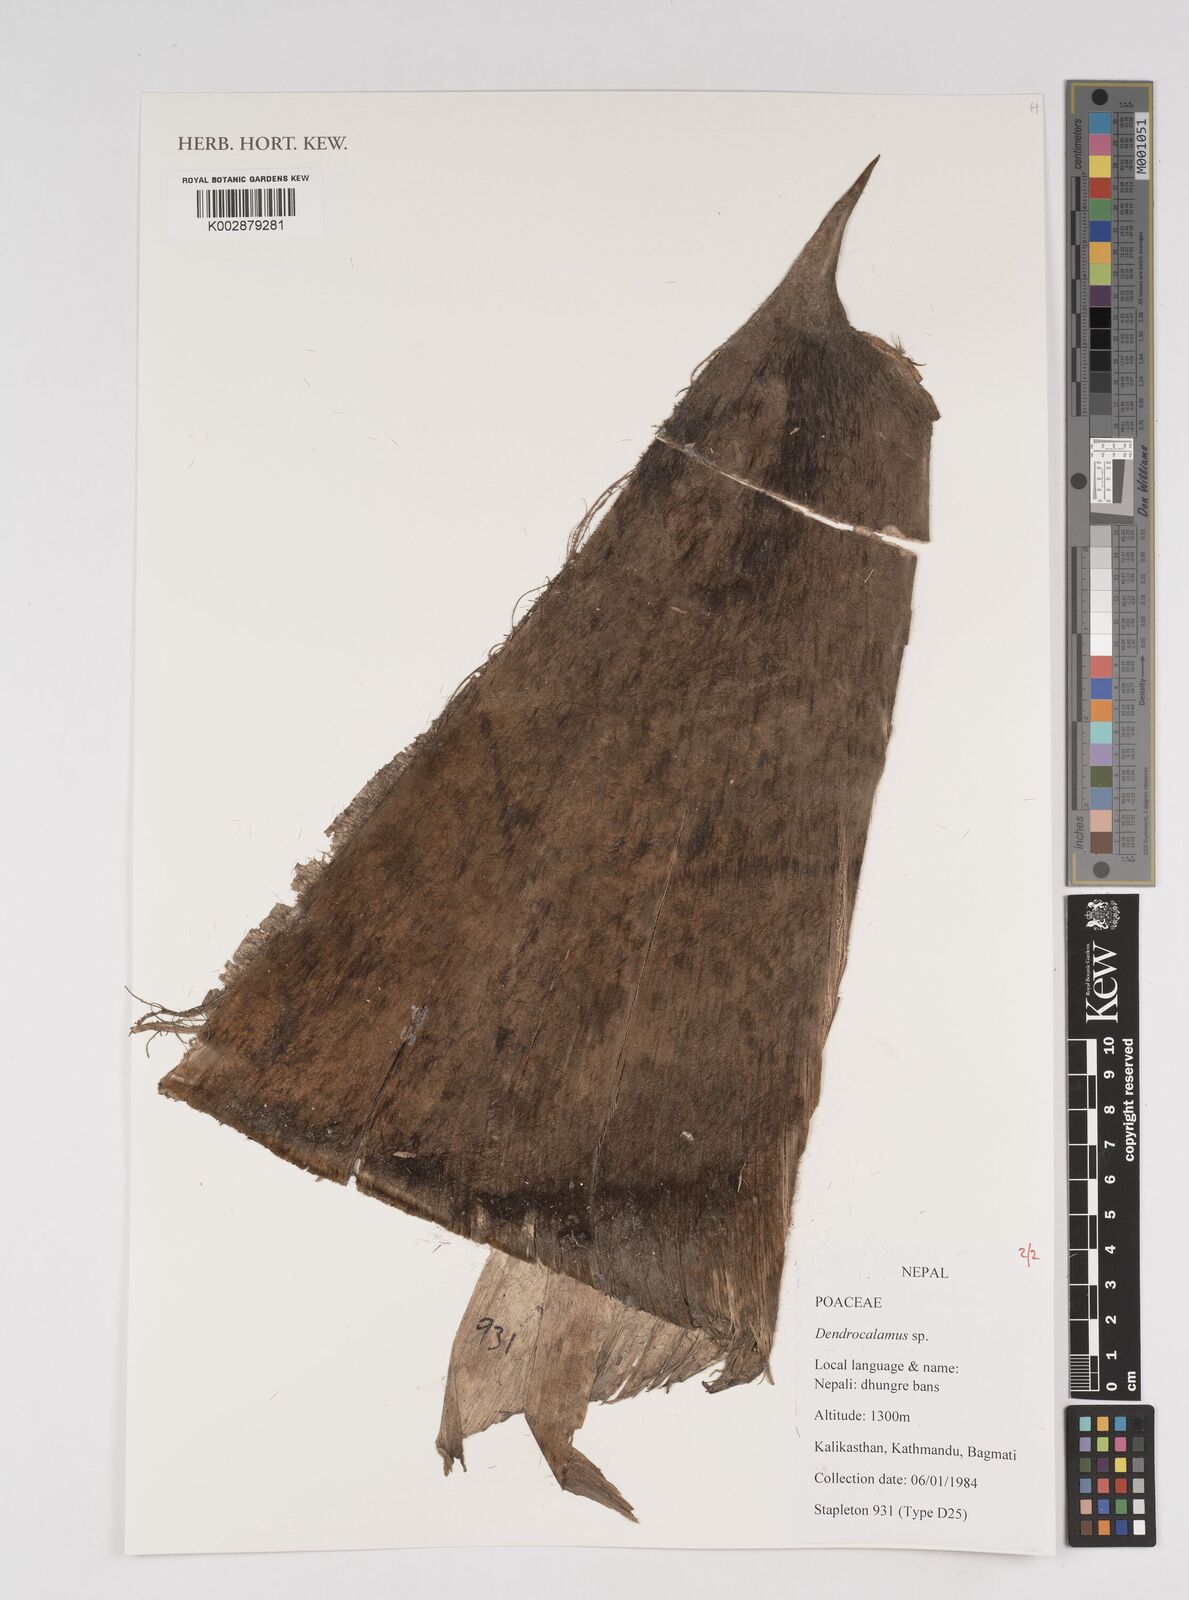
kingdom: Plantae
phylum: Tracheophyta
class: Liliopsida
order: Poales
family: Poaceae
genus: Dendrocalamus
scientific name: Dendrocalamus
